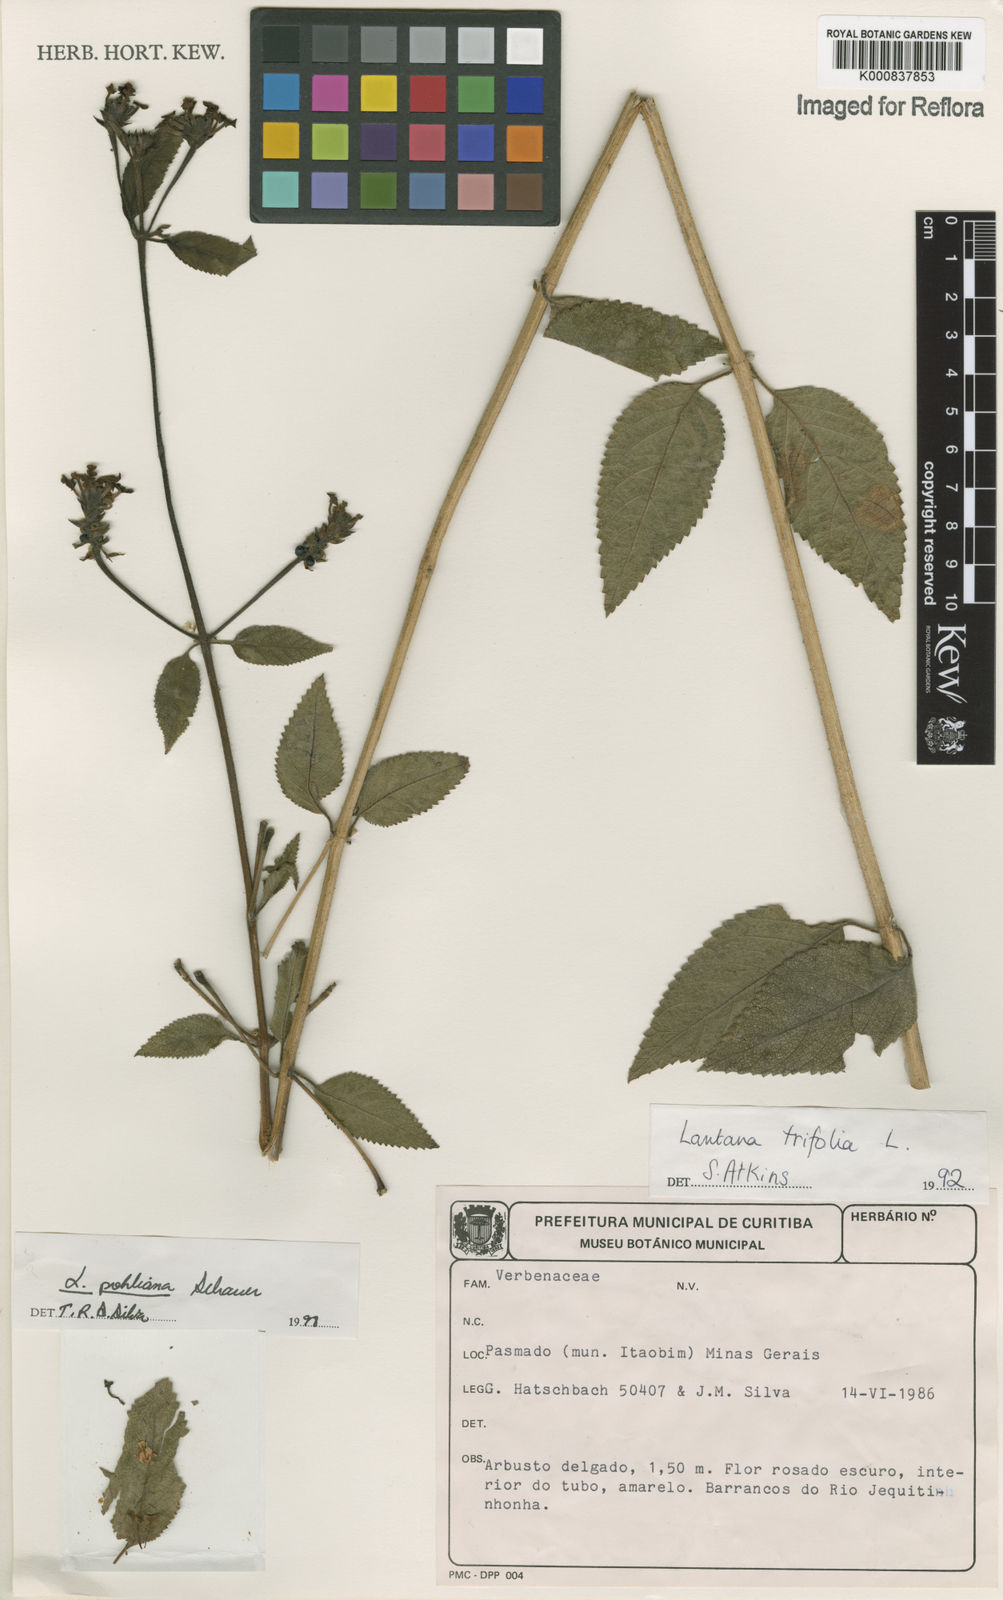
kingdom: Plantae
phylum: Tracheophyta
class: Magnoliopsida
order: Lamiales
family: Verbenaceae
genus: Lantana
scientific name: Lantana pohliana
